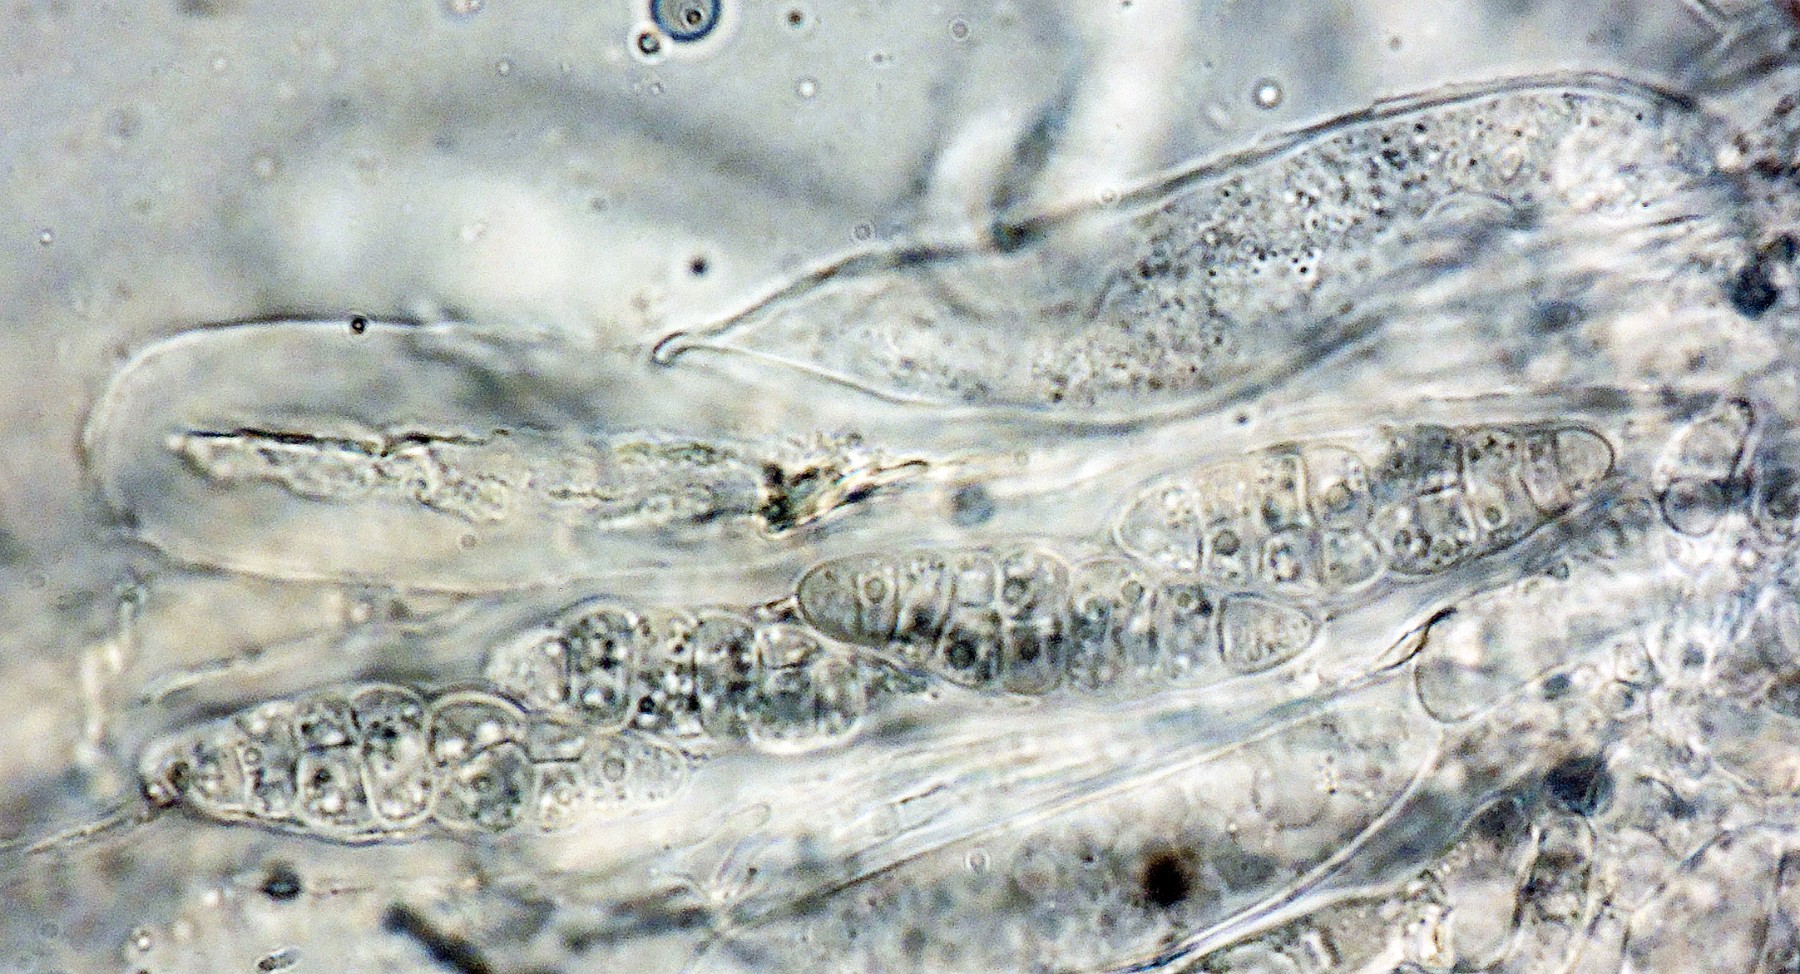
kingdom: Plantae
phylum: Bryophyta
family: Dothideomycetes
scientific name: Dothideomycetes
